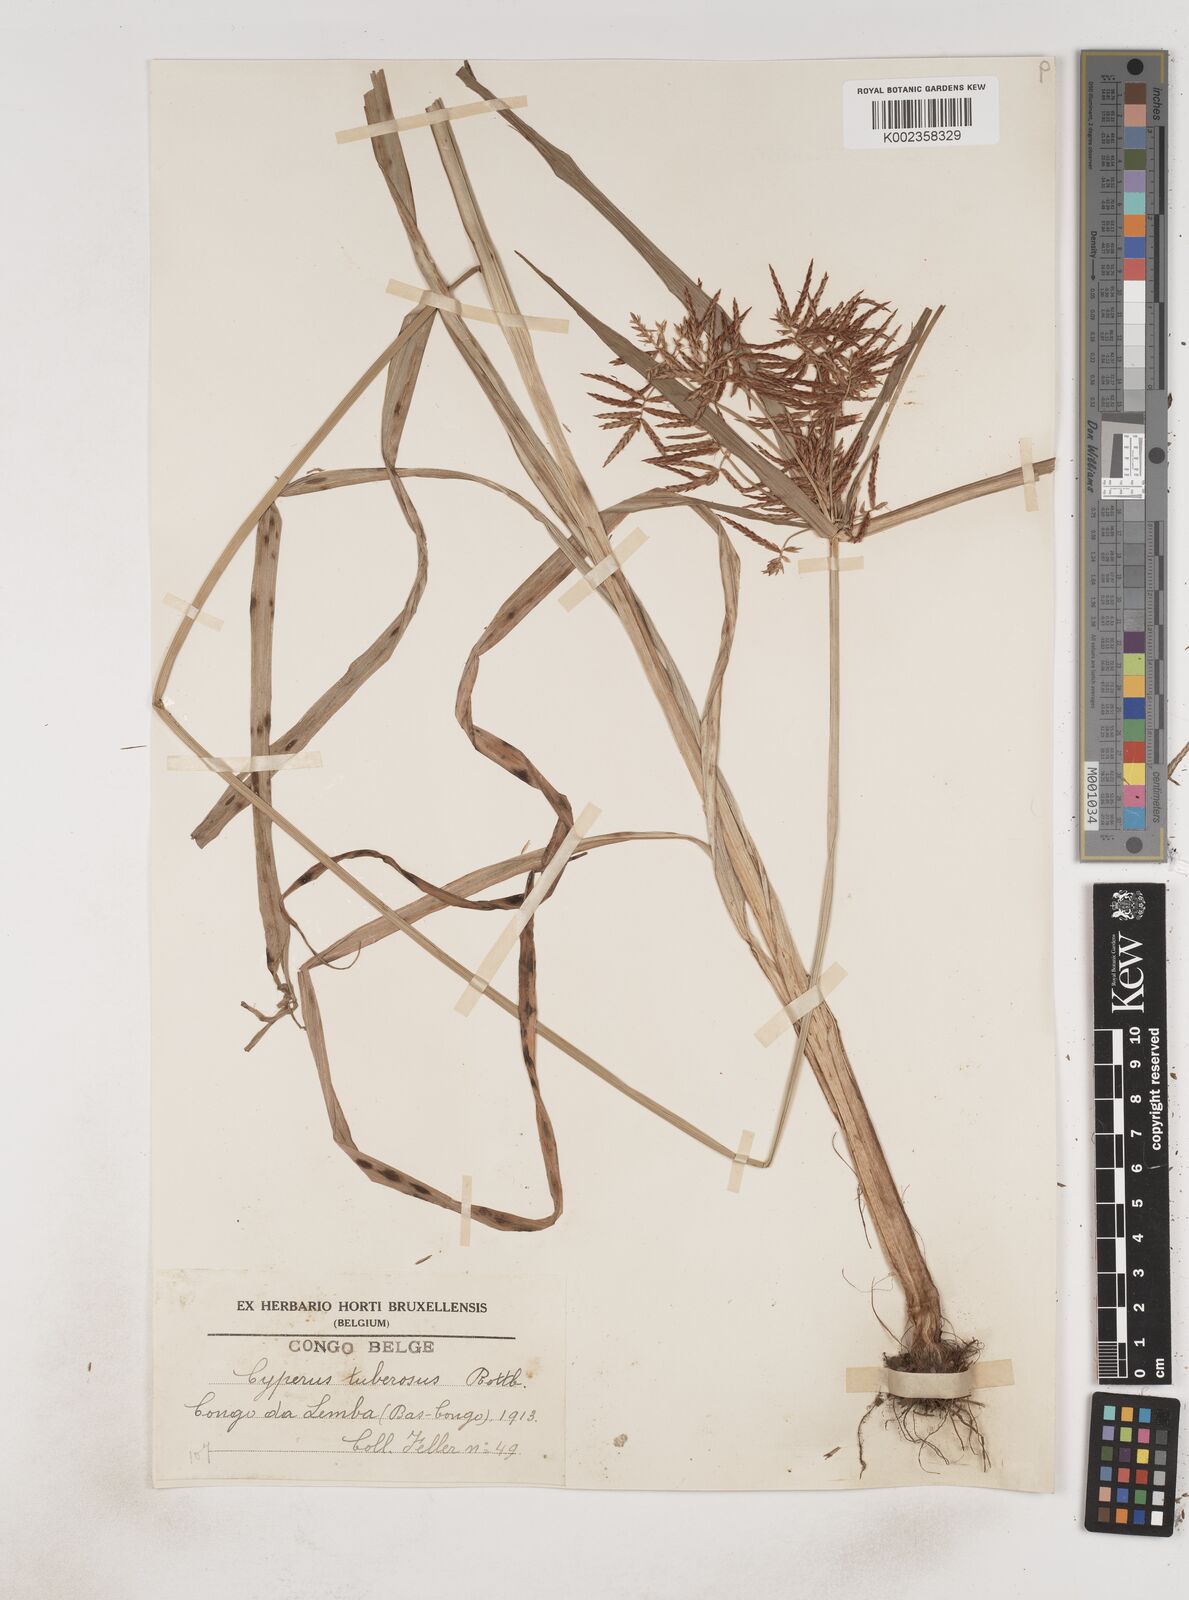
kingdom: Plantae
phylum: Tracheophyta
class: Liliopsida
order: Poales
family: Cyperaceae
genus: Cyperus
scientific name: Cyperus tuberosus
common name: Nut grass
